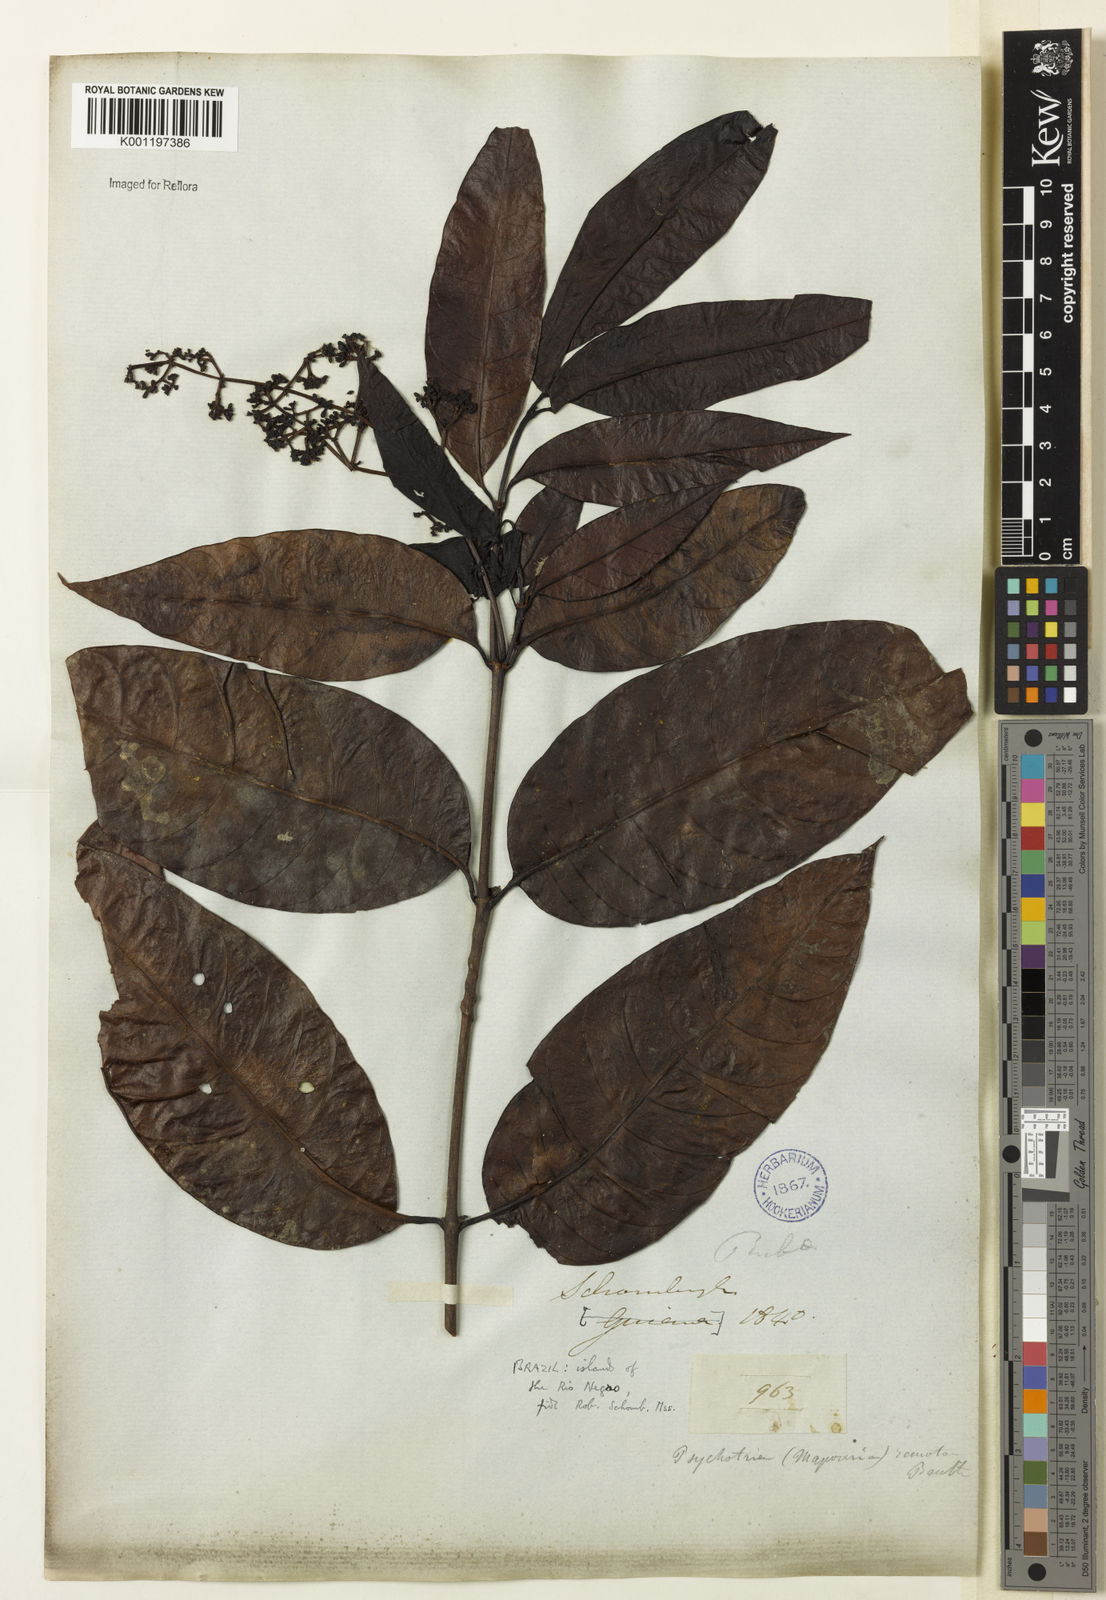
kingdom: Plantae
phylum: Tracheophyta
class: Magnoliopsida
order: Gentianales
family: Rubiaceae
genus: Psychotria
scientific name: Psychotria remota
